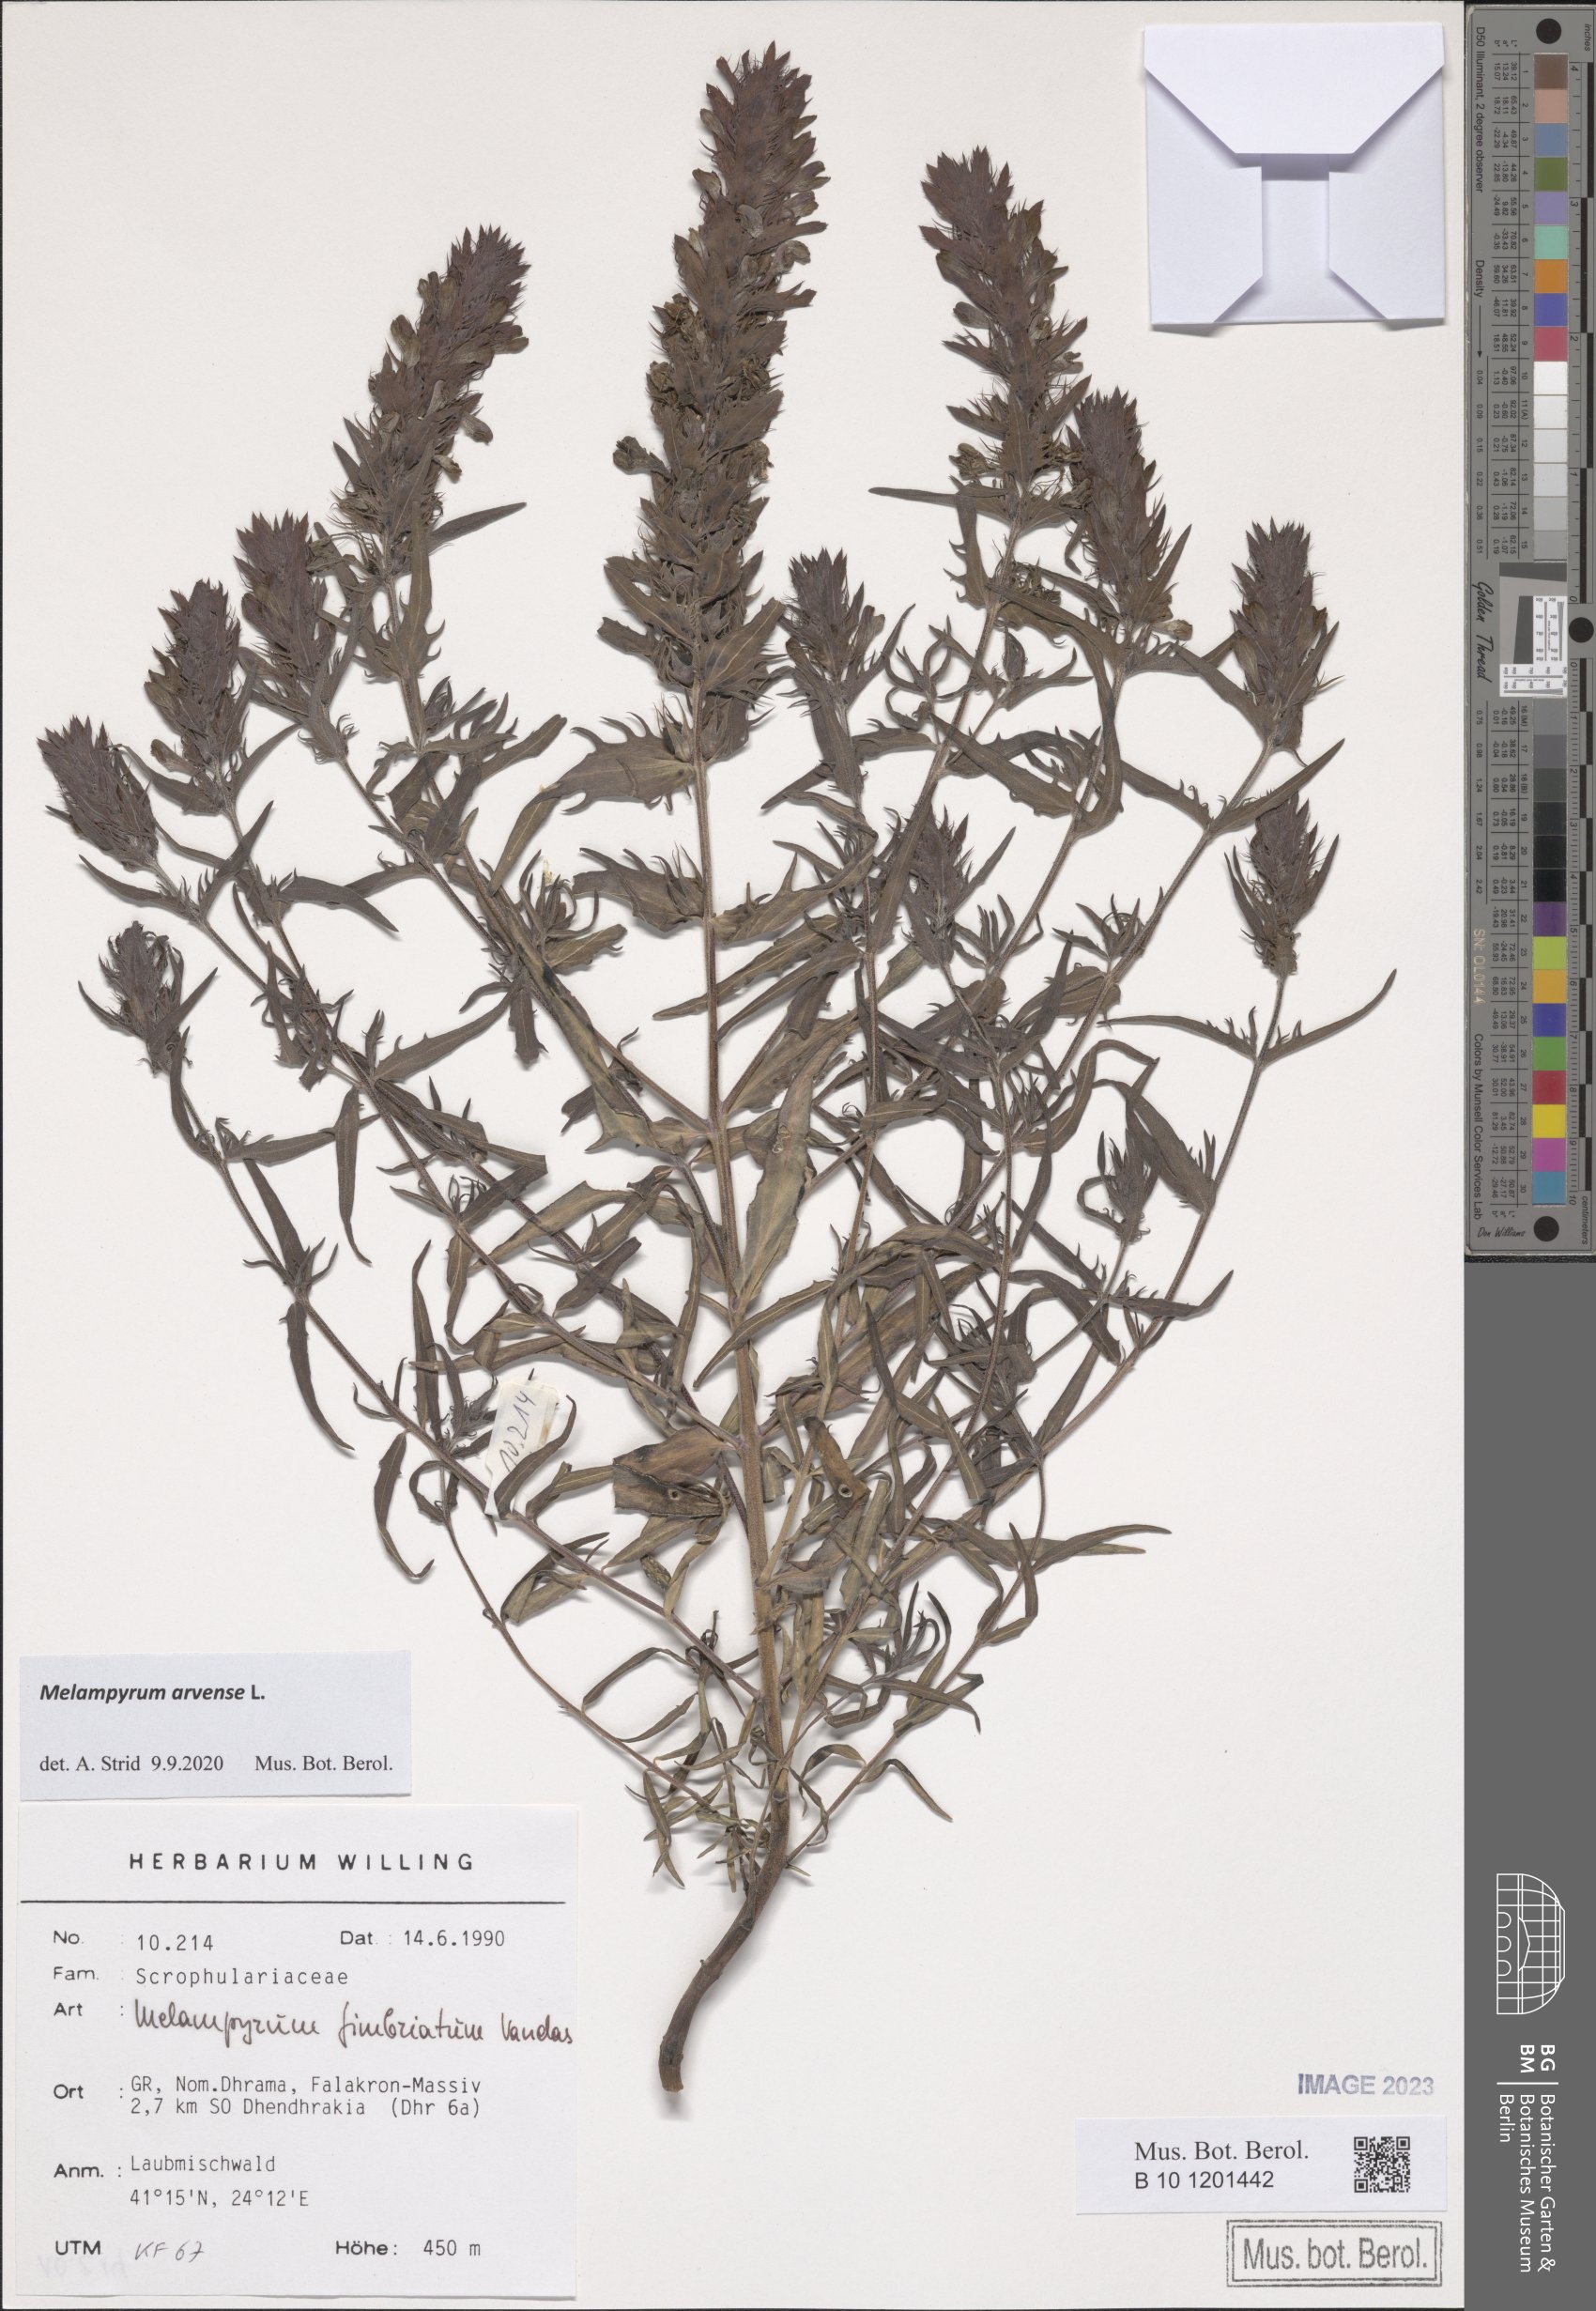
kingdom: Plantae
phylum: Tracheophyta
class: Magnoliopsida
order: Lamiales
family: Orobanchaceae
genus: Melampyrum
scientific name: Melampyrum arvense
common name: Field cow-wheat
